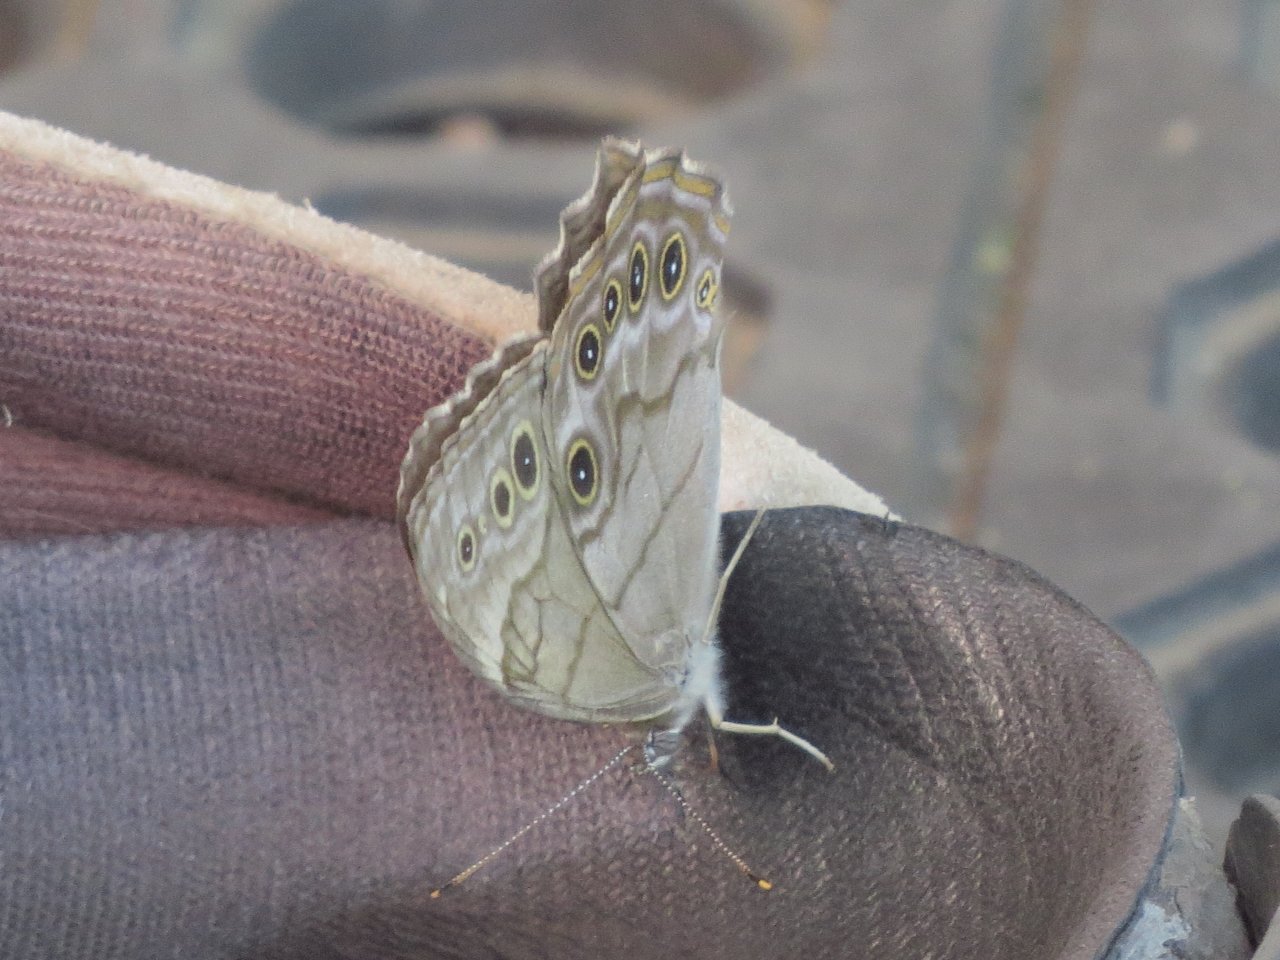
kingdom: Animalia
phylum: Arthropoda
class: Insecta
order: Lepidoptera
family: Nymphalidae
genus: Lethe
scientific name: Lethe anthedon
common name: Northern Pearly-Eye
